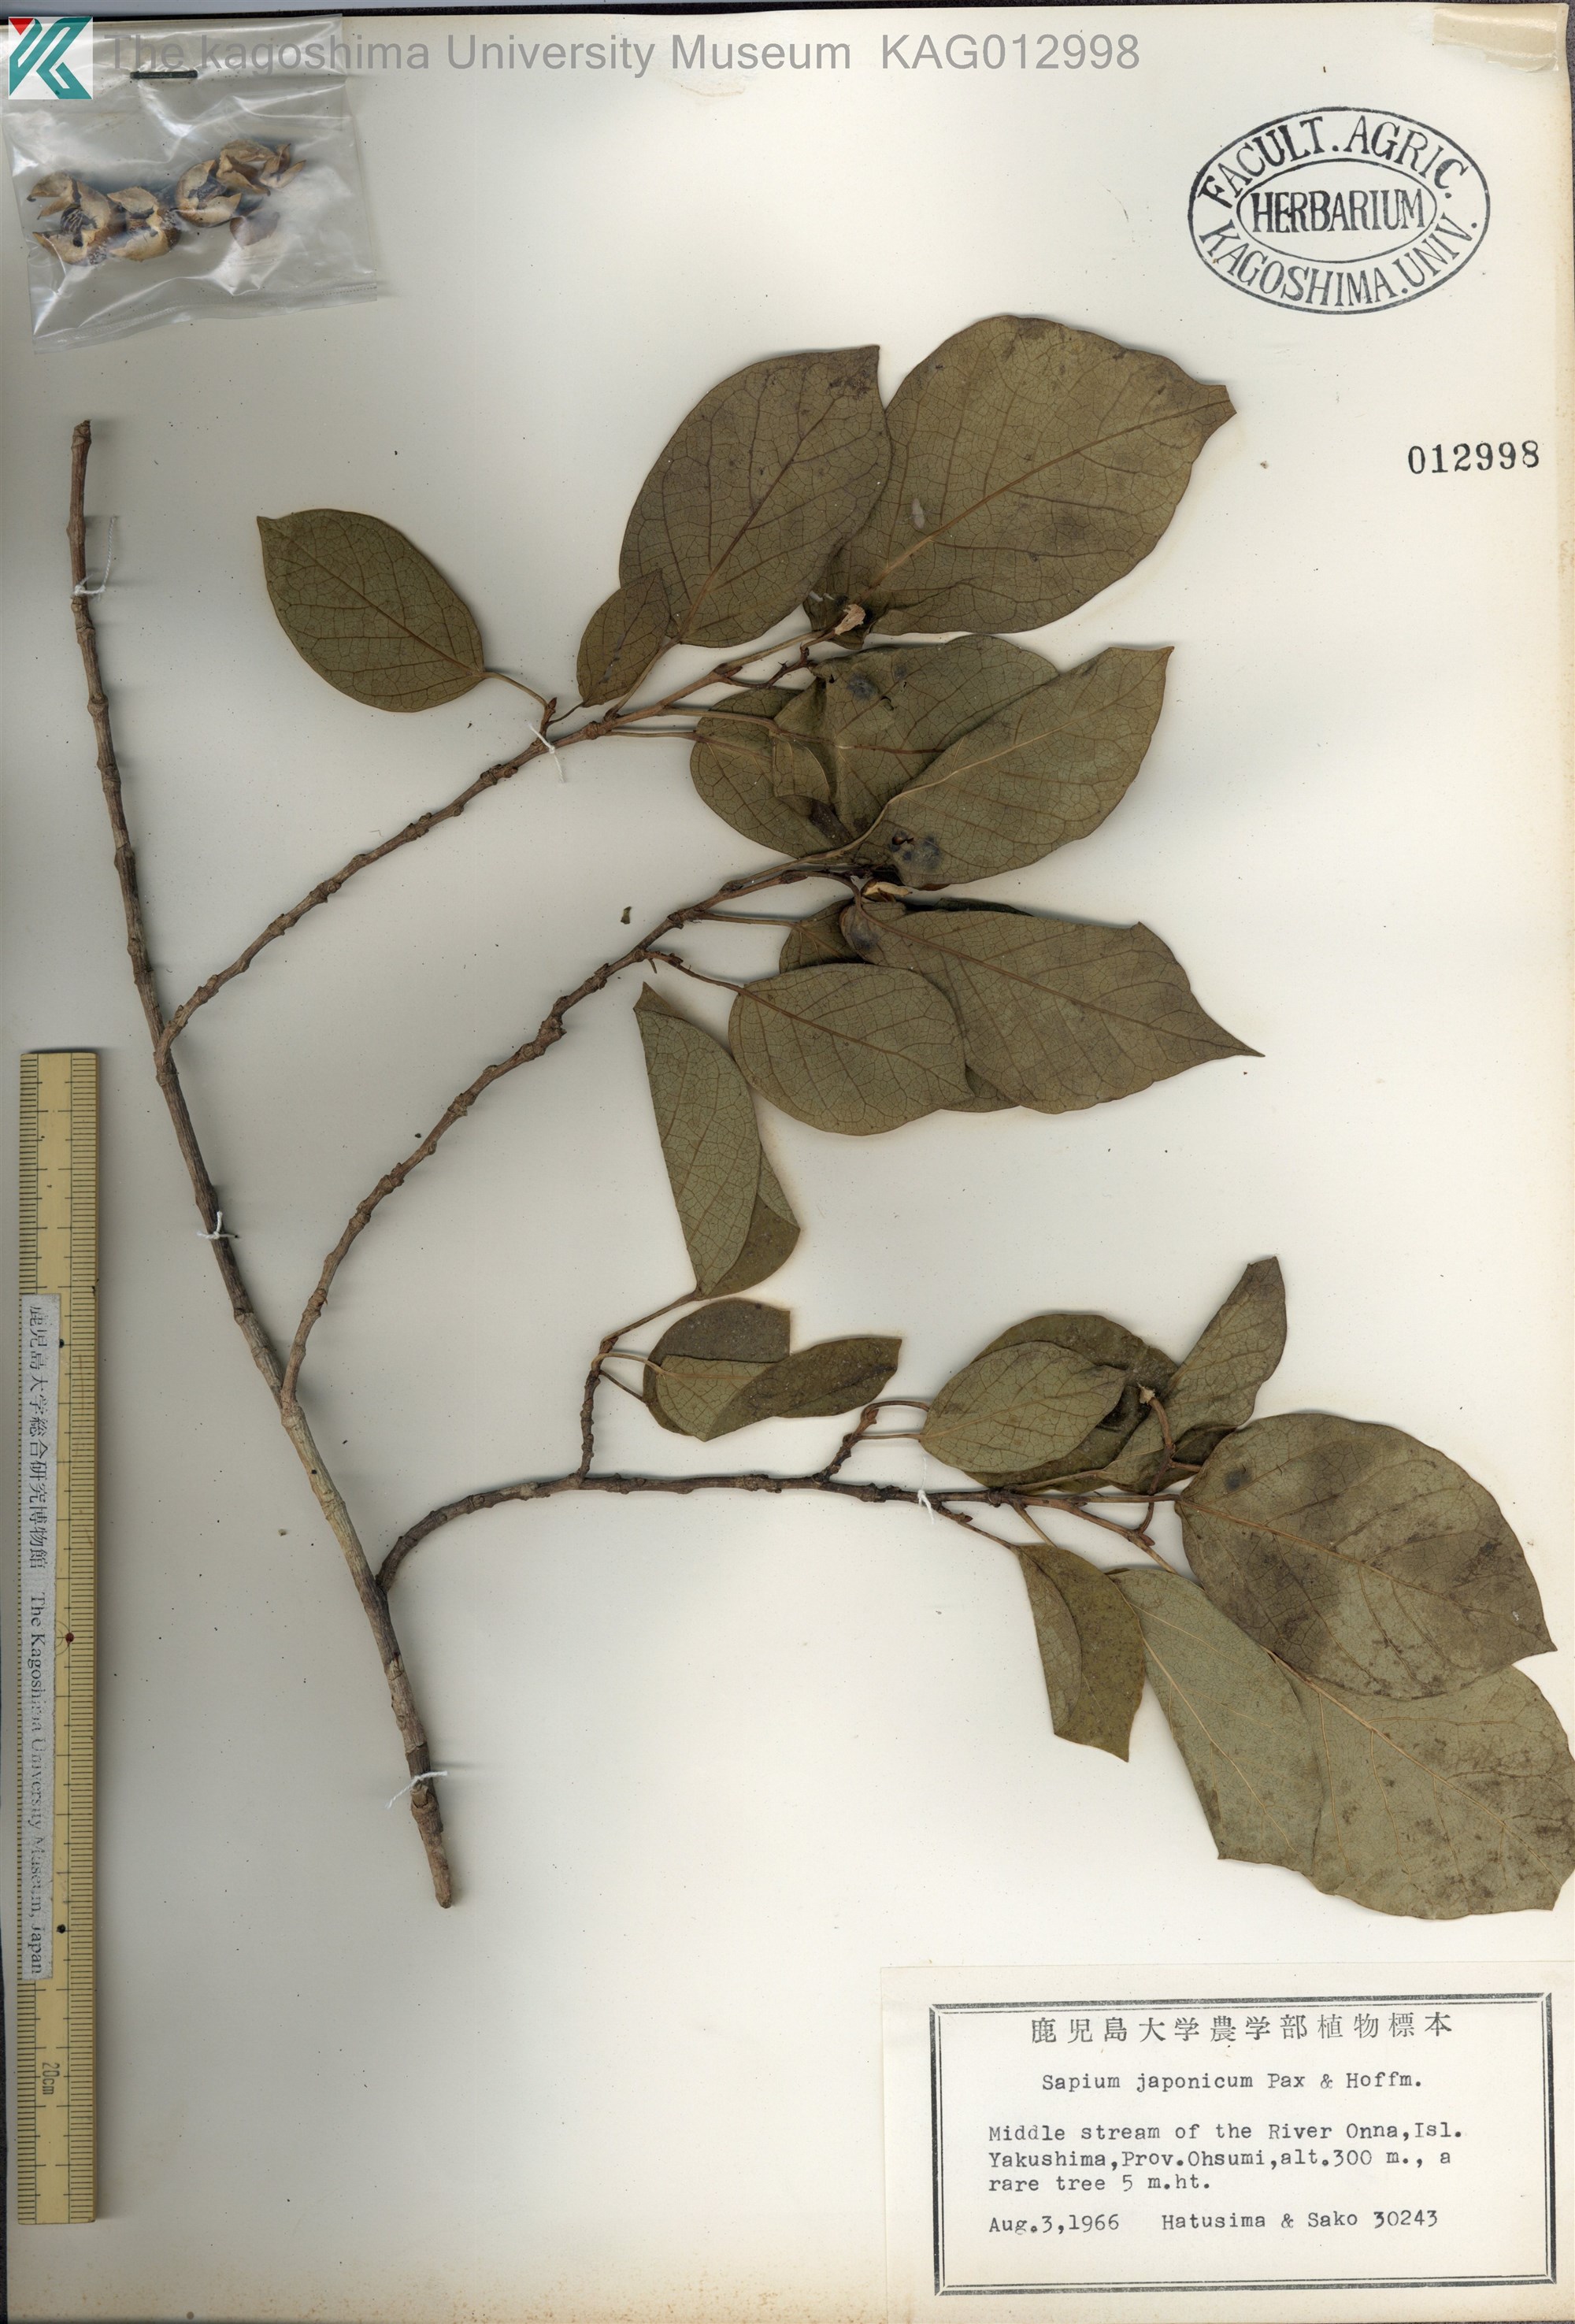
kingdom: Plantae
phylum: Tracheophyta
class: Magnoliopsida
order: Malpighiales
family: Euphorbiaceae
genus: Neoshirakia
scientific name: Neoshirakia japonica
